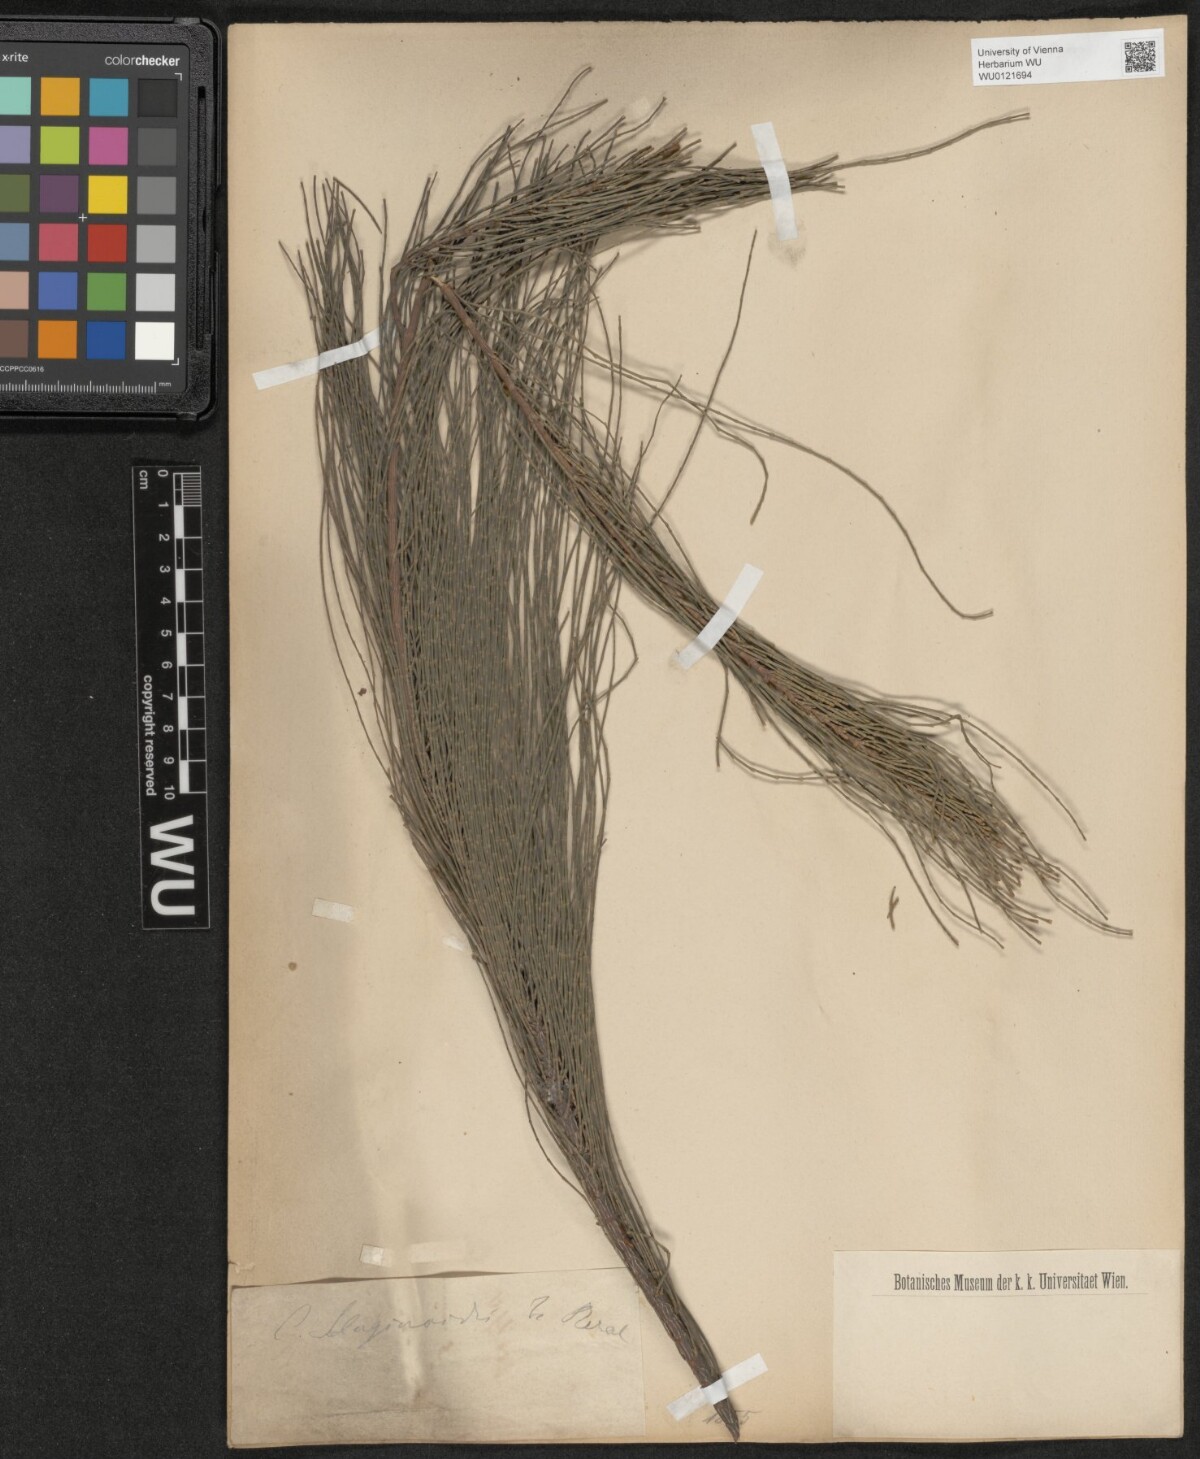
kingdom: Plantae
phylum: Tracheophyta
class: Magnoliopsida
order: Fagales
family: Casuarinaceae
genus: Allocasuarina
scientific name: Allocasuarina humilis
